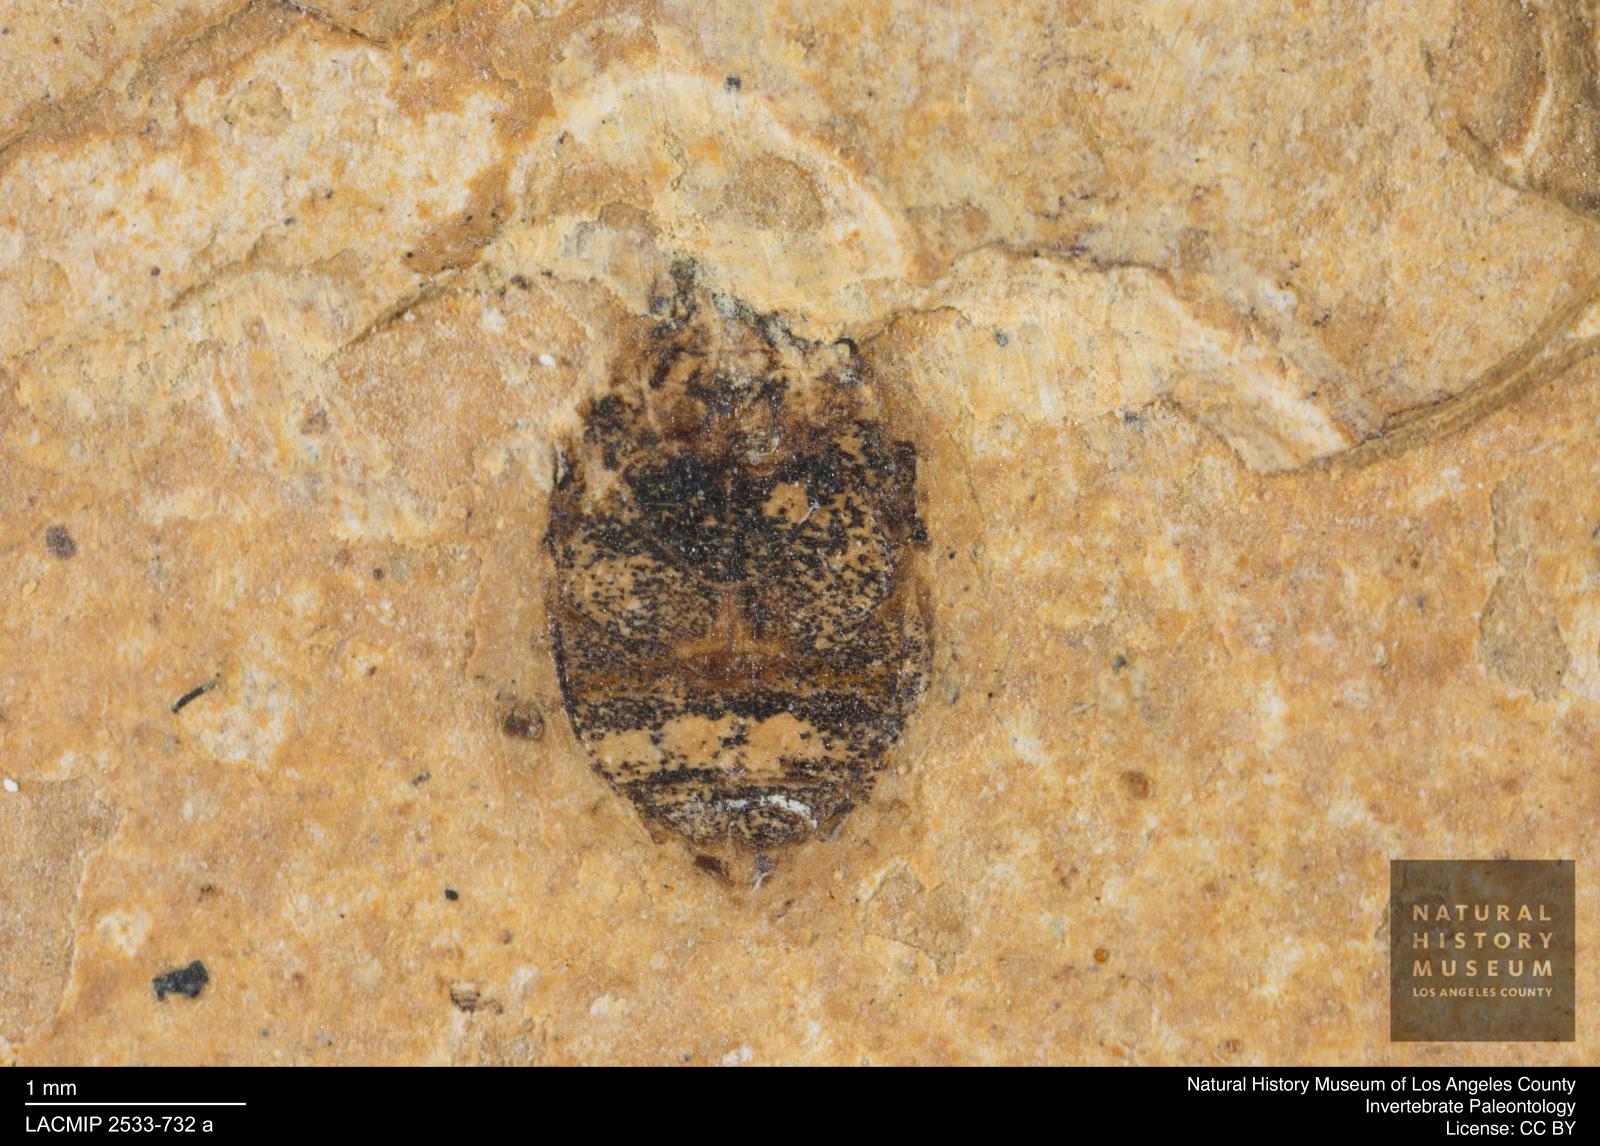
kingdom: Animalia
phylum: Arthropoda
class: Insecta
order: Coleoptera
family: Dytiscidae
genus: Oreodytes
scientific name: Oreodytes cryptolineatus
